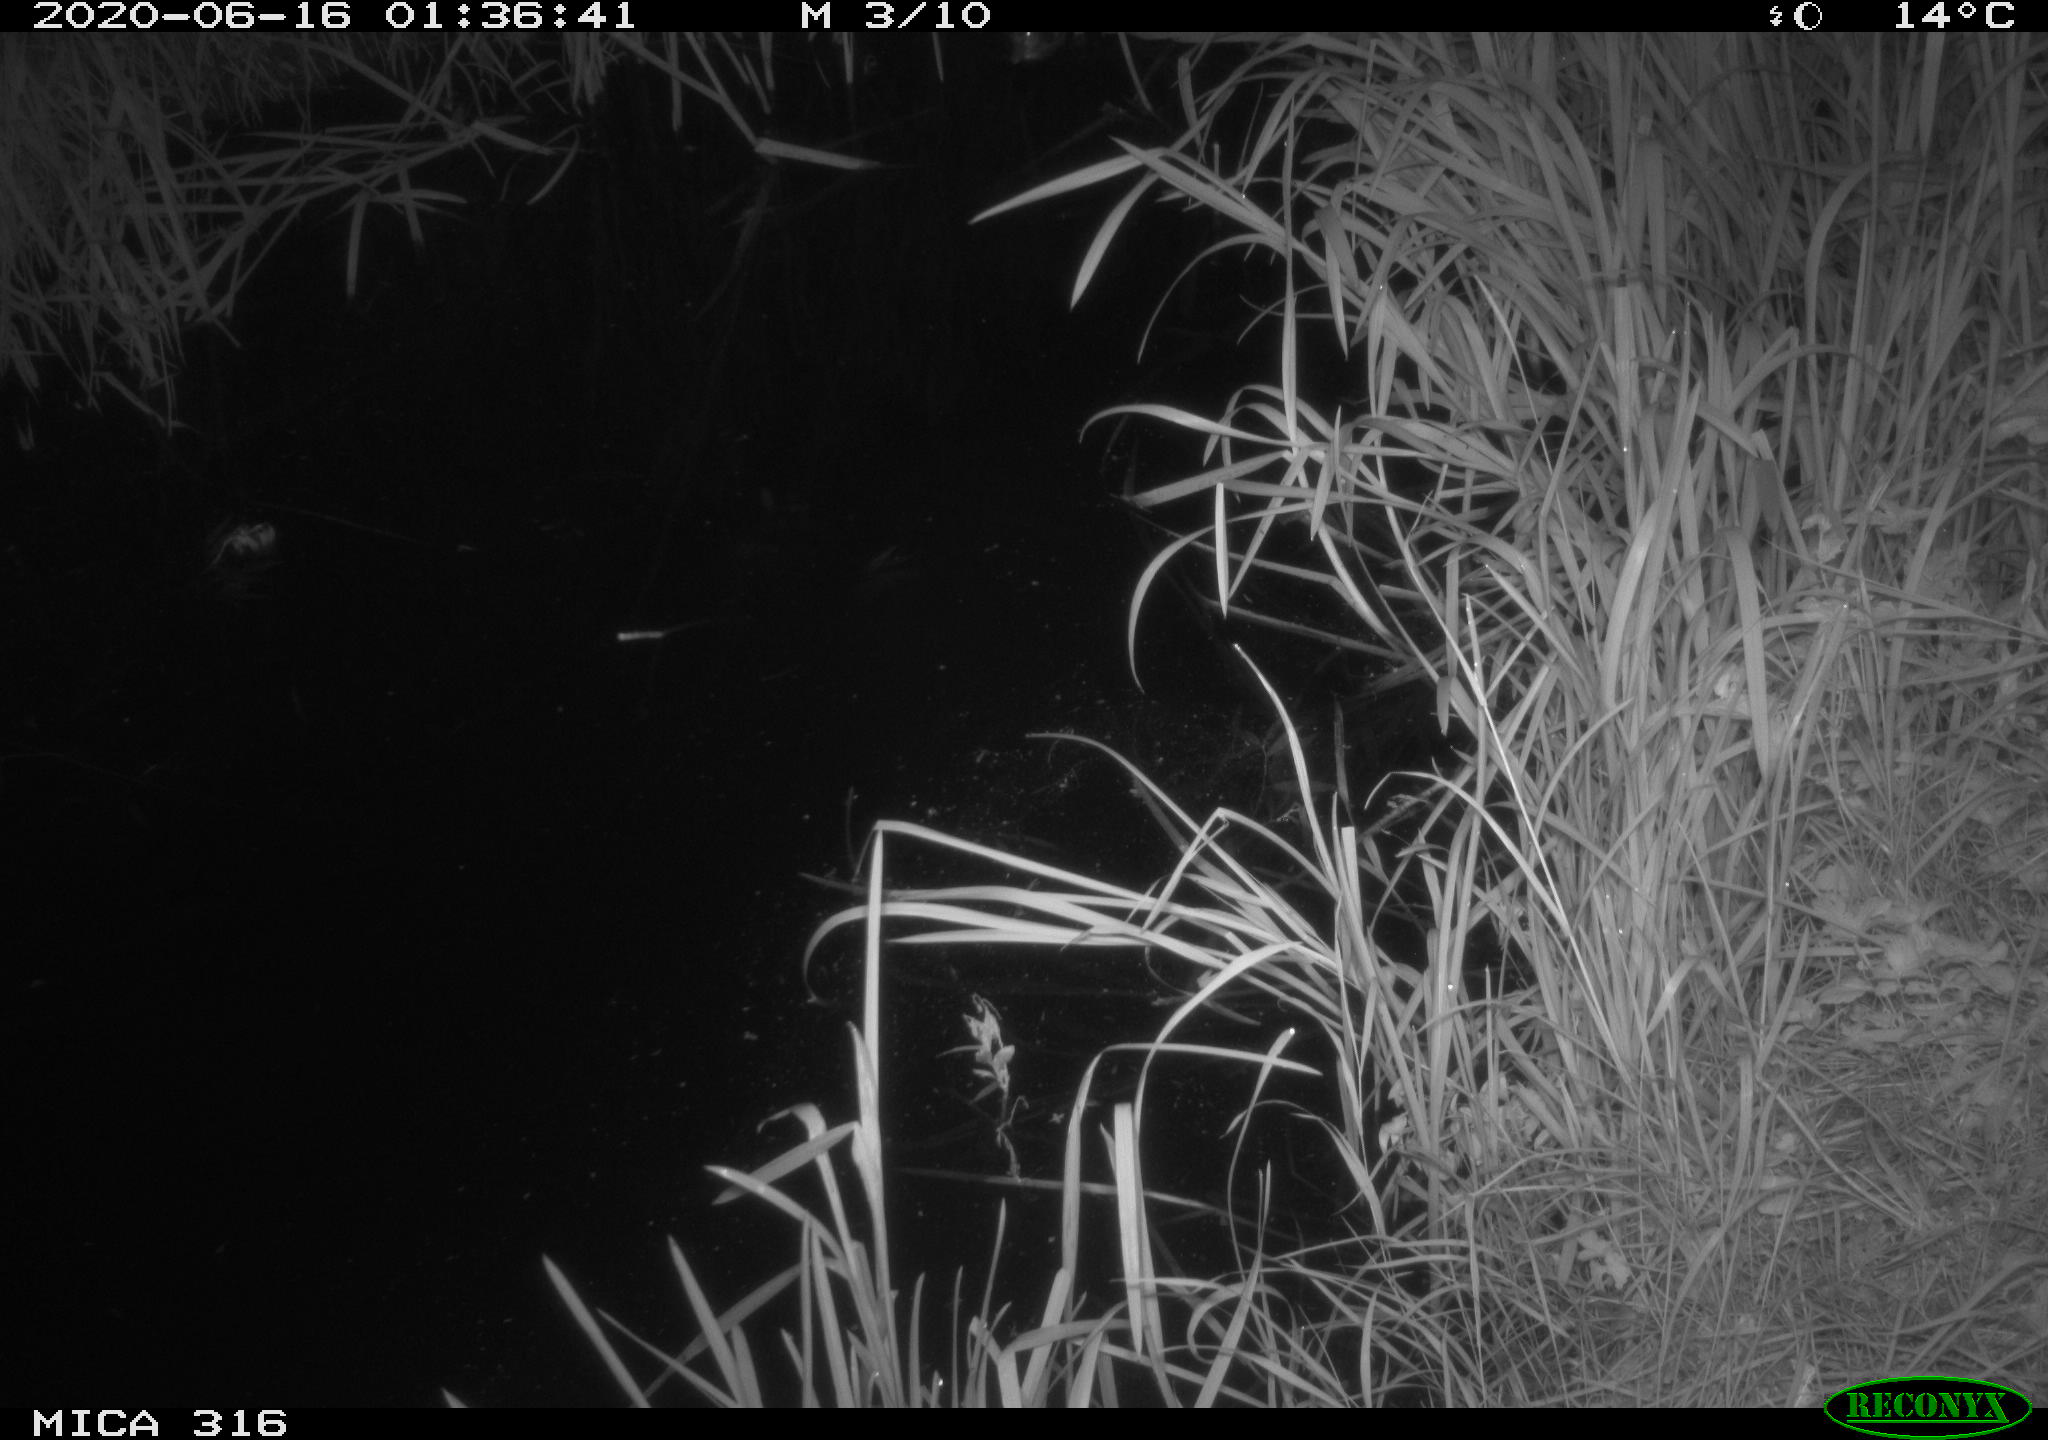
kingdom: Animalia
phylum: Chordata
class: Aves
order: Anseriformes
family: Anatidae
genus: Anas
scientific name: Anas platyrhynchos
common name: Mallard
